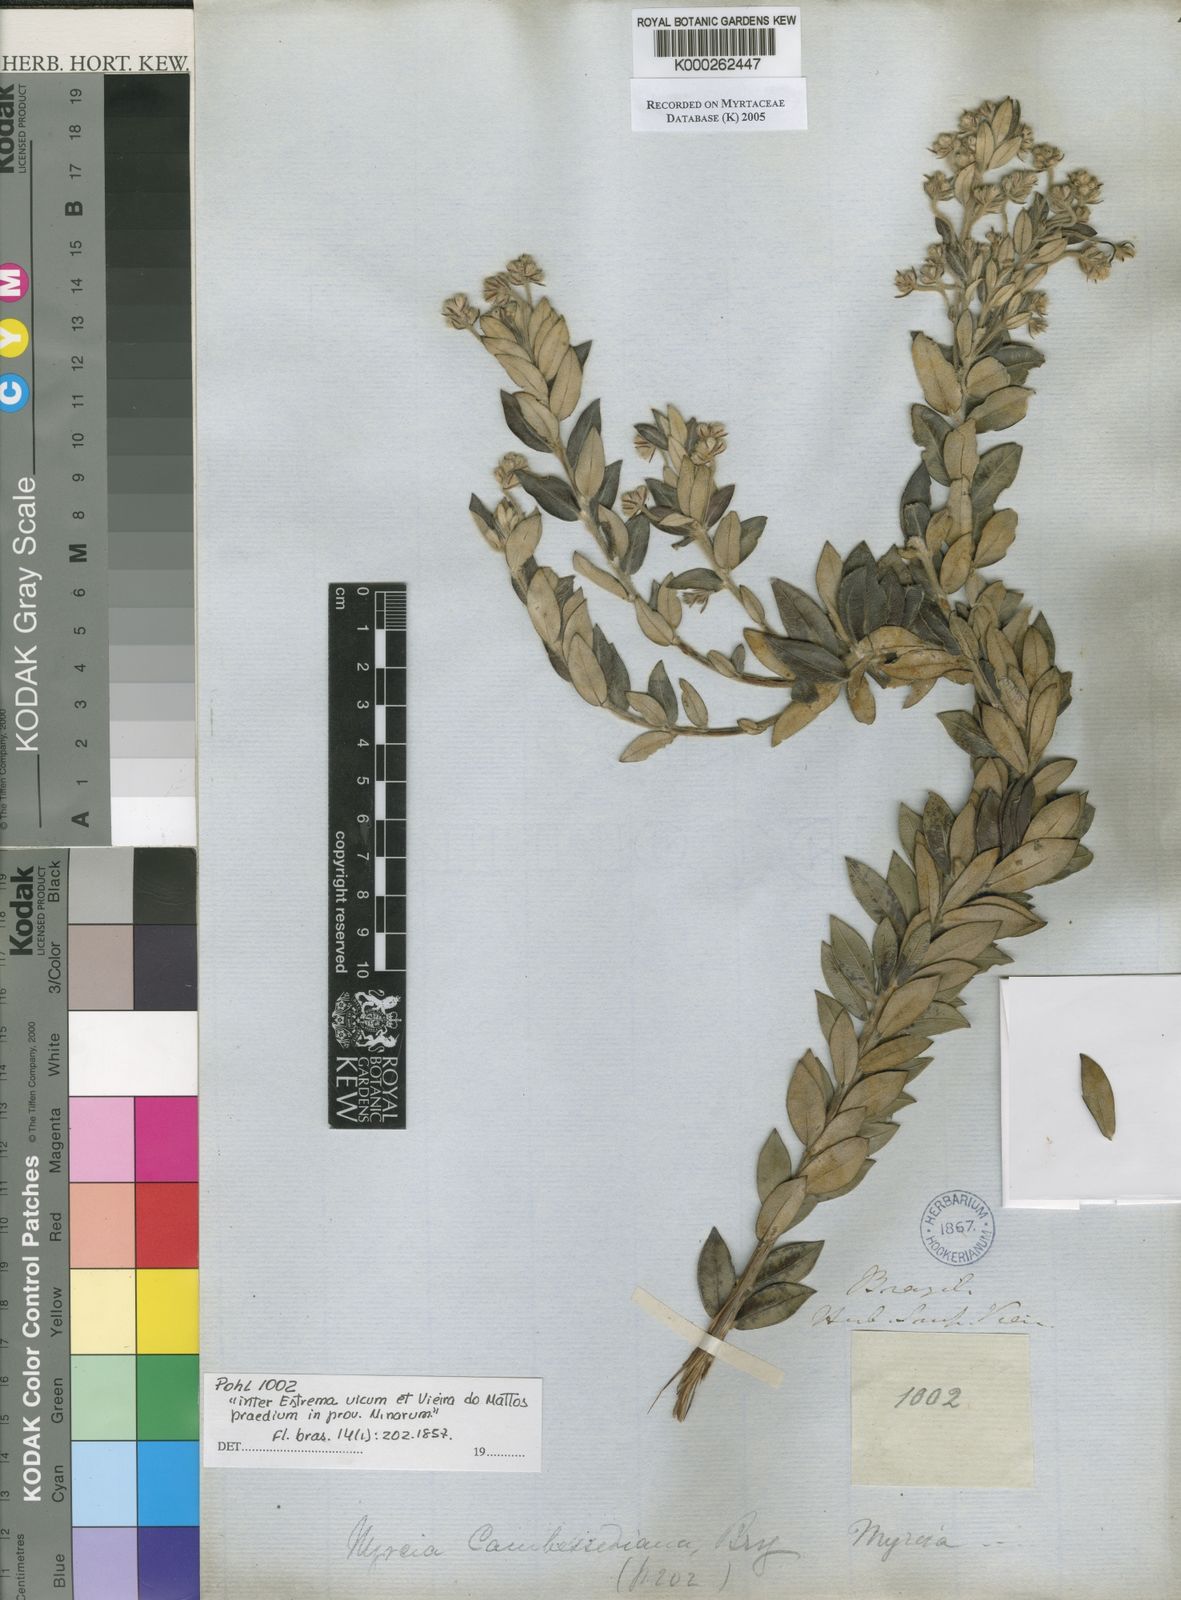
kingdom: Plantae
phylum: Tracheophyta
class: Magnoliopsida
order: Myrtales
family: Myrtaceae
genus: Myrcia
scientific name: Myrcia
